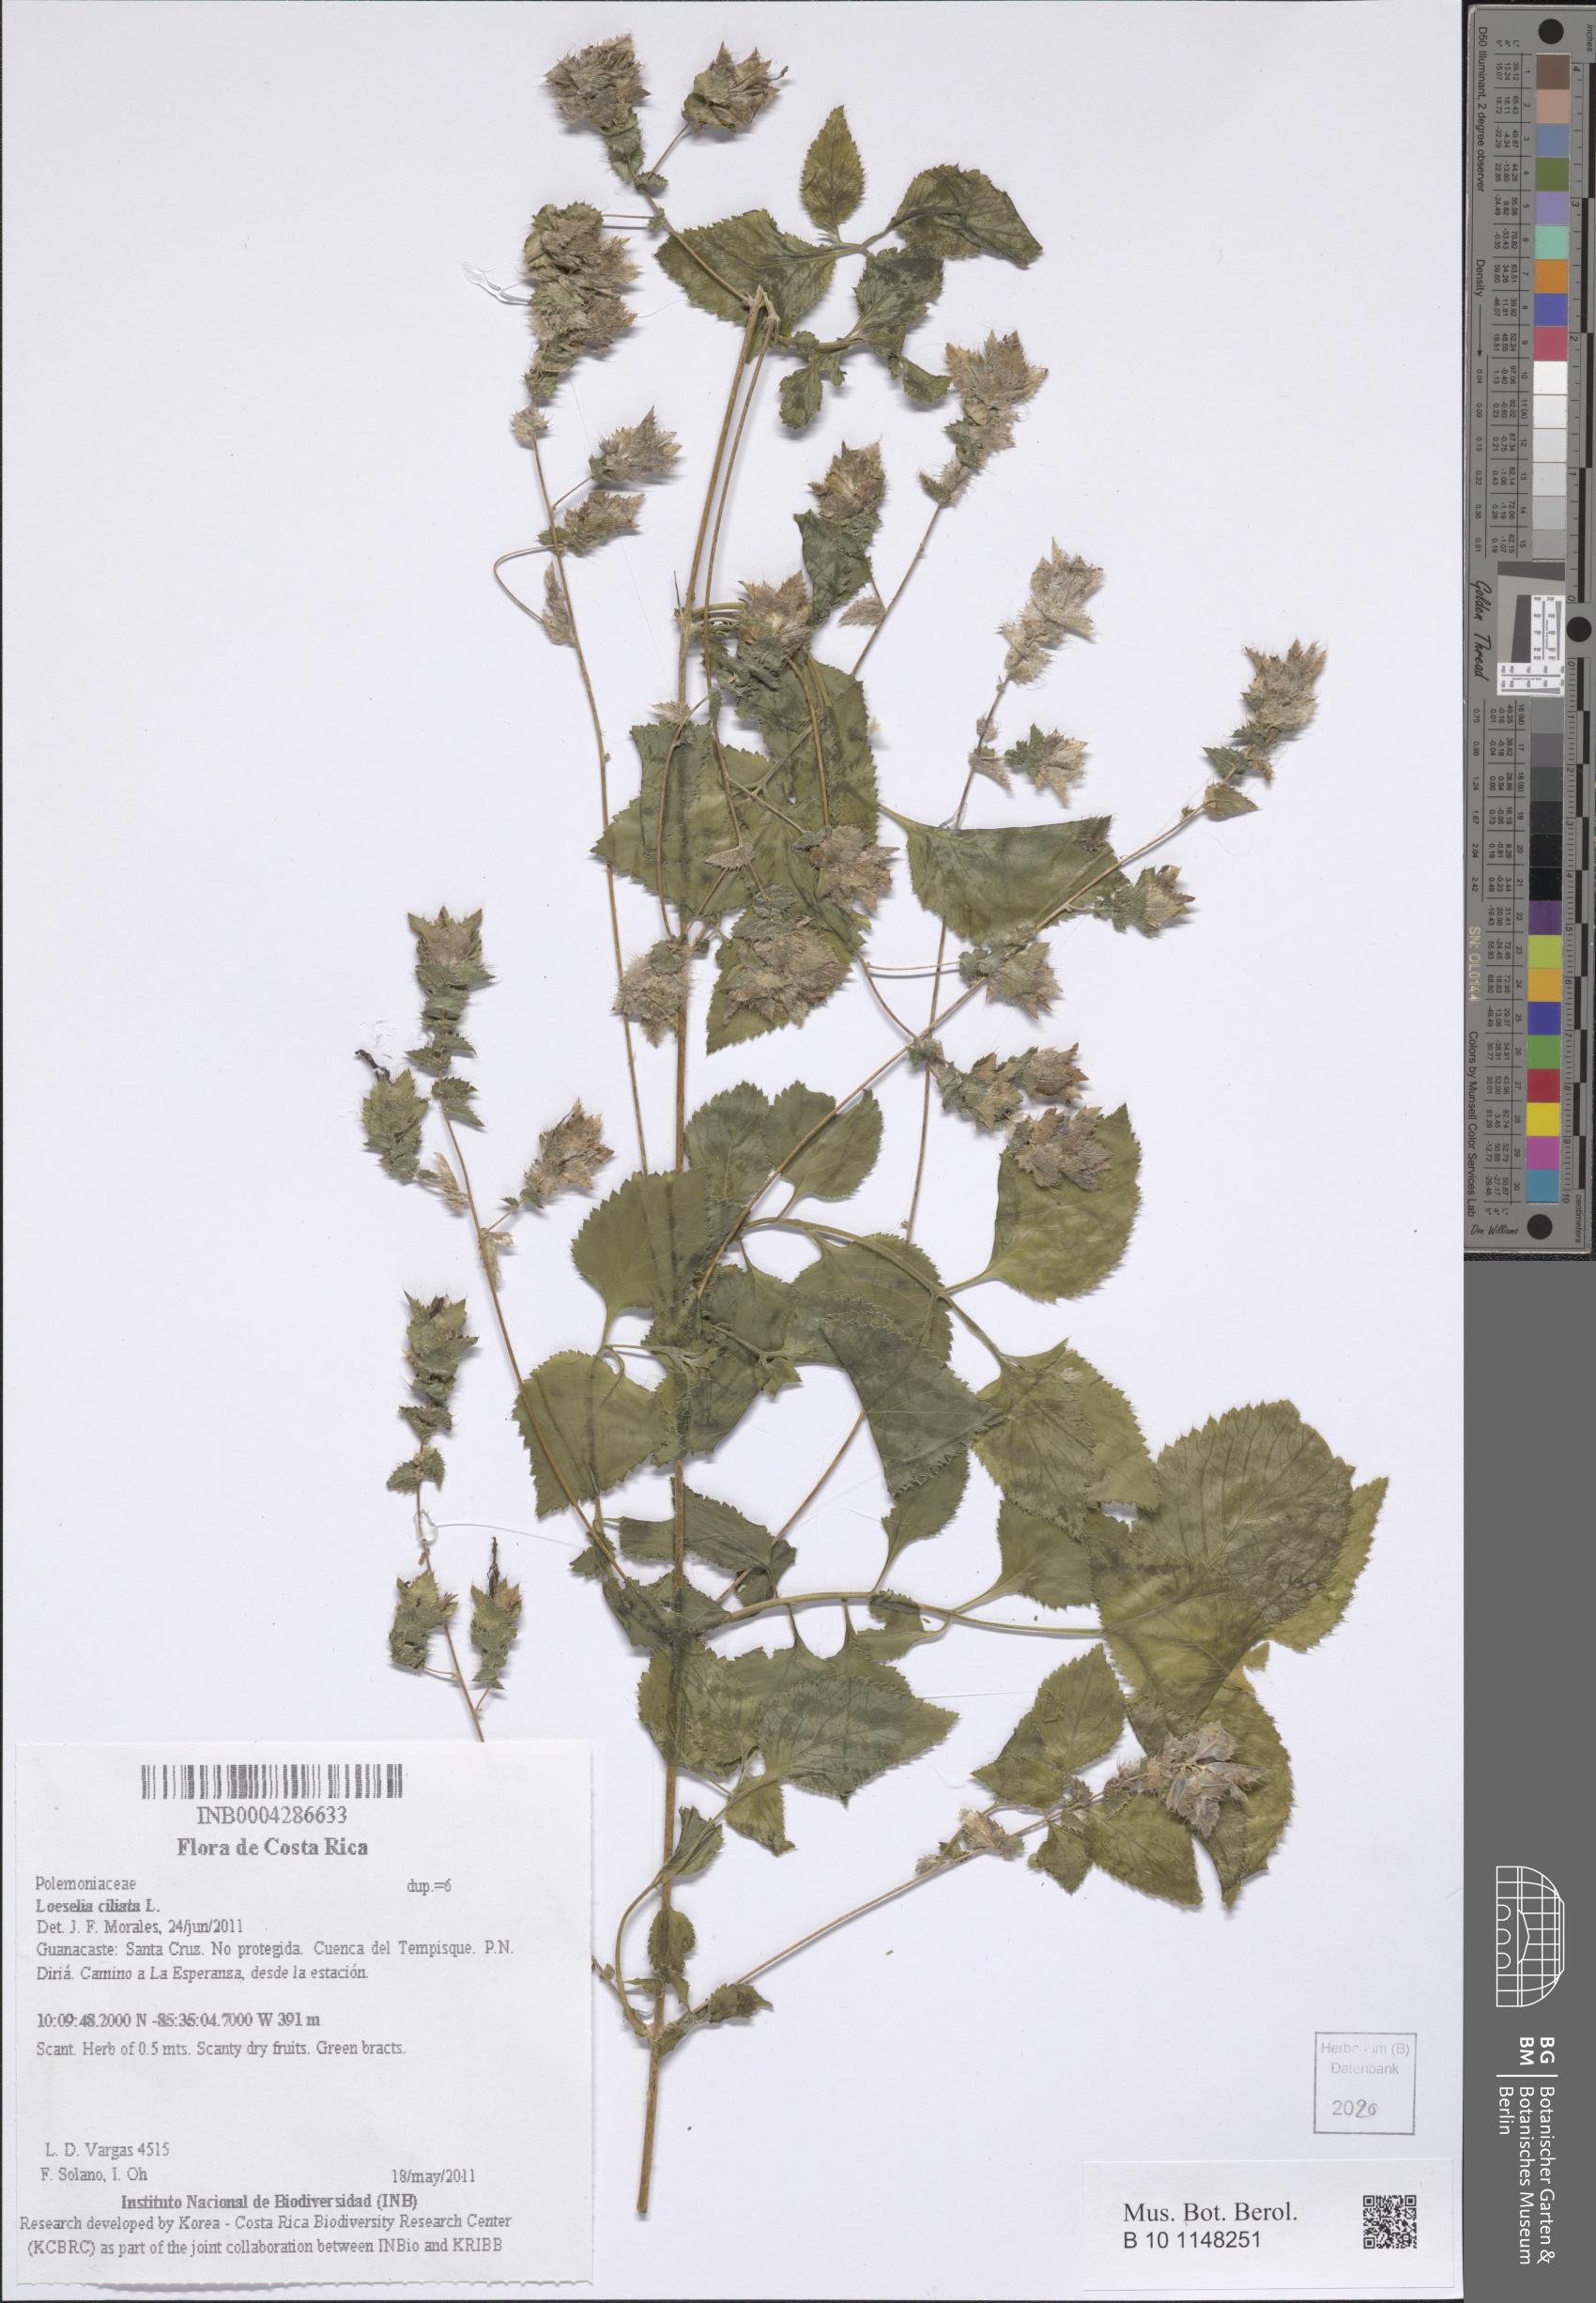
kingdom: Plantae
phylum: Tracheophyta
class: Magnoliopsida
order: Ericales
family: Polemoniaceae
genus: Loeselia
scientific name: Loeselia ciliata
